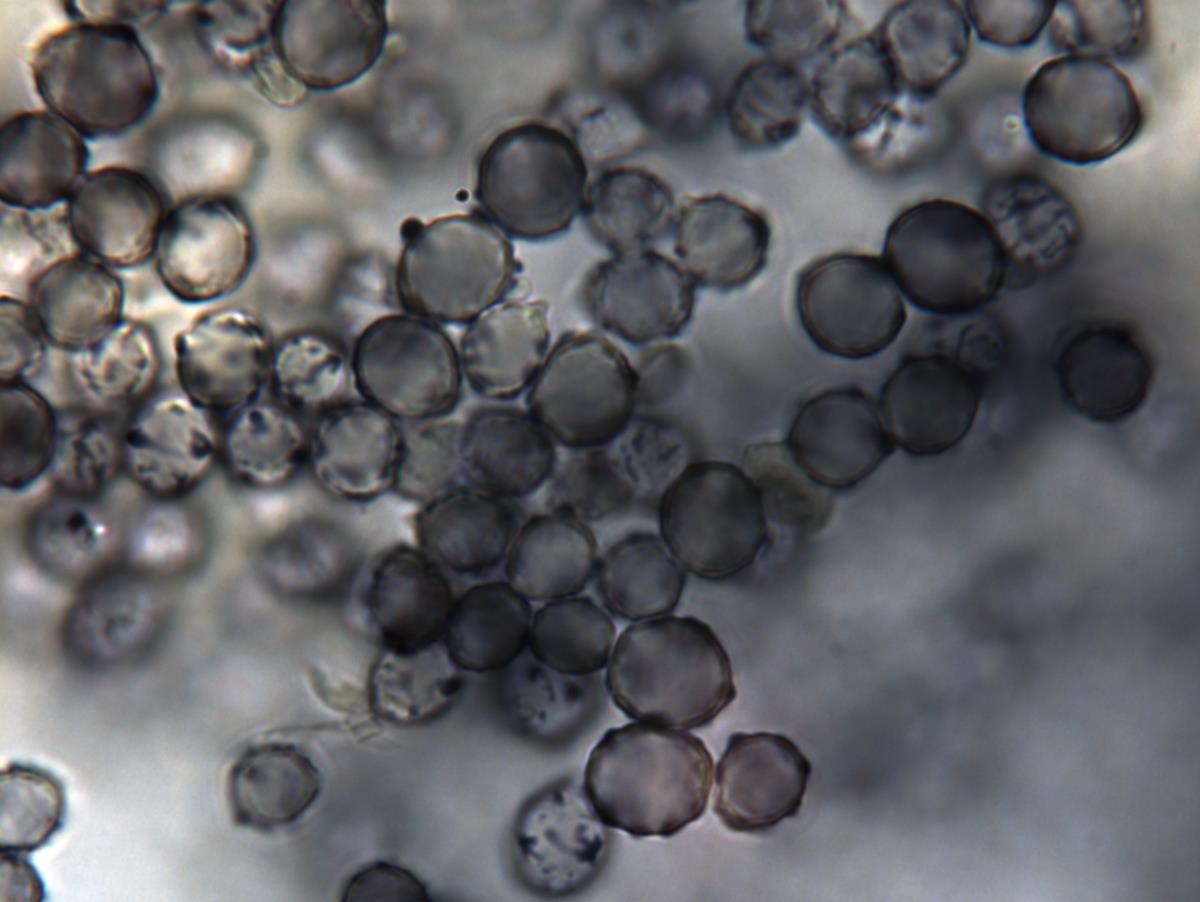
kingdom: Fungi
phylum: Basidiomycota
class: Agaricomycetes
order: Russulales
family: Russulaceae
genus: Zelleromyces
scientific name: Zelleromyces
